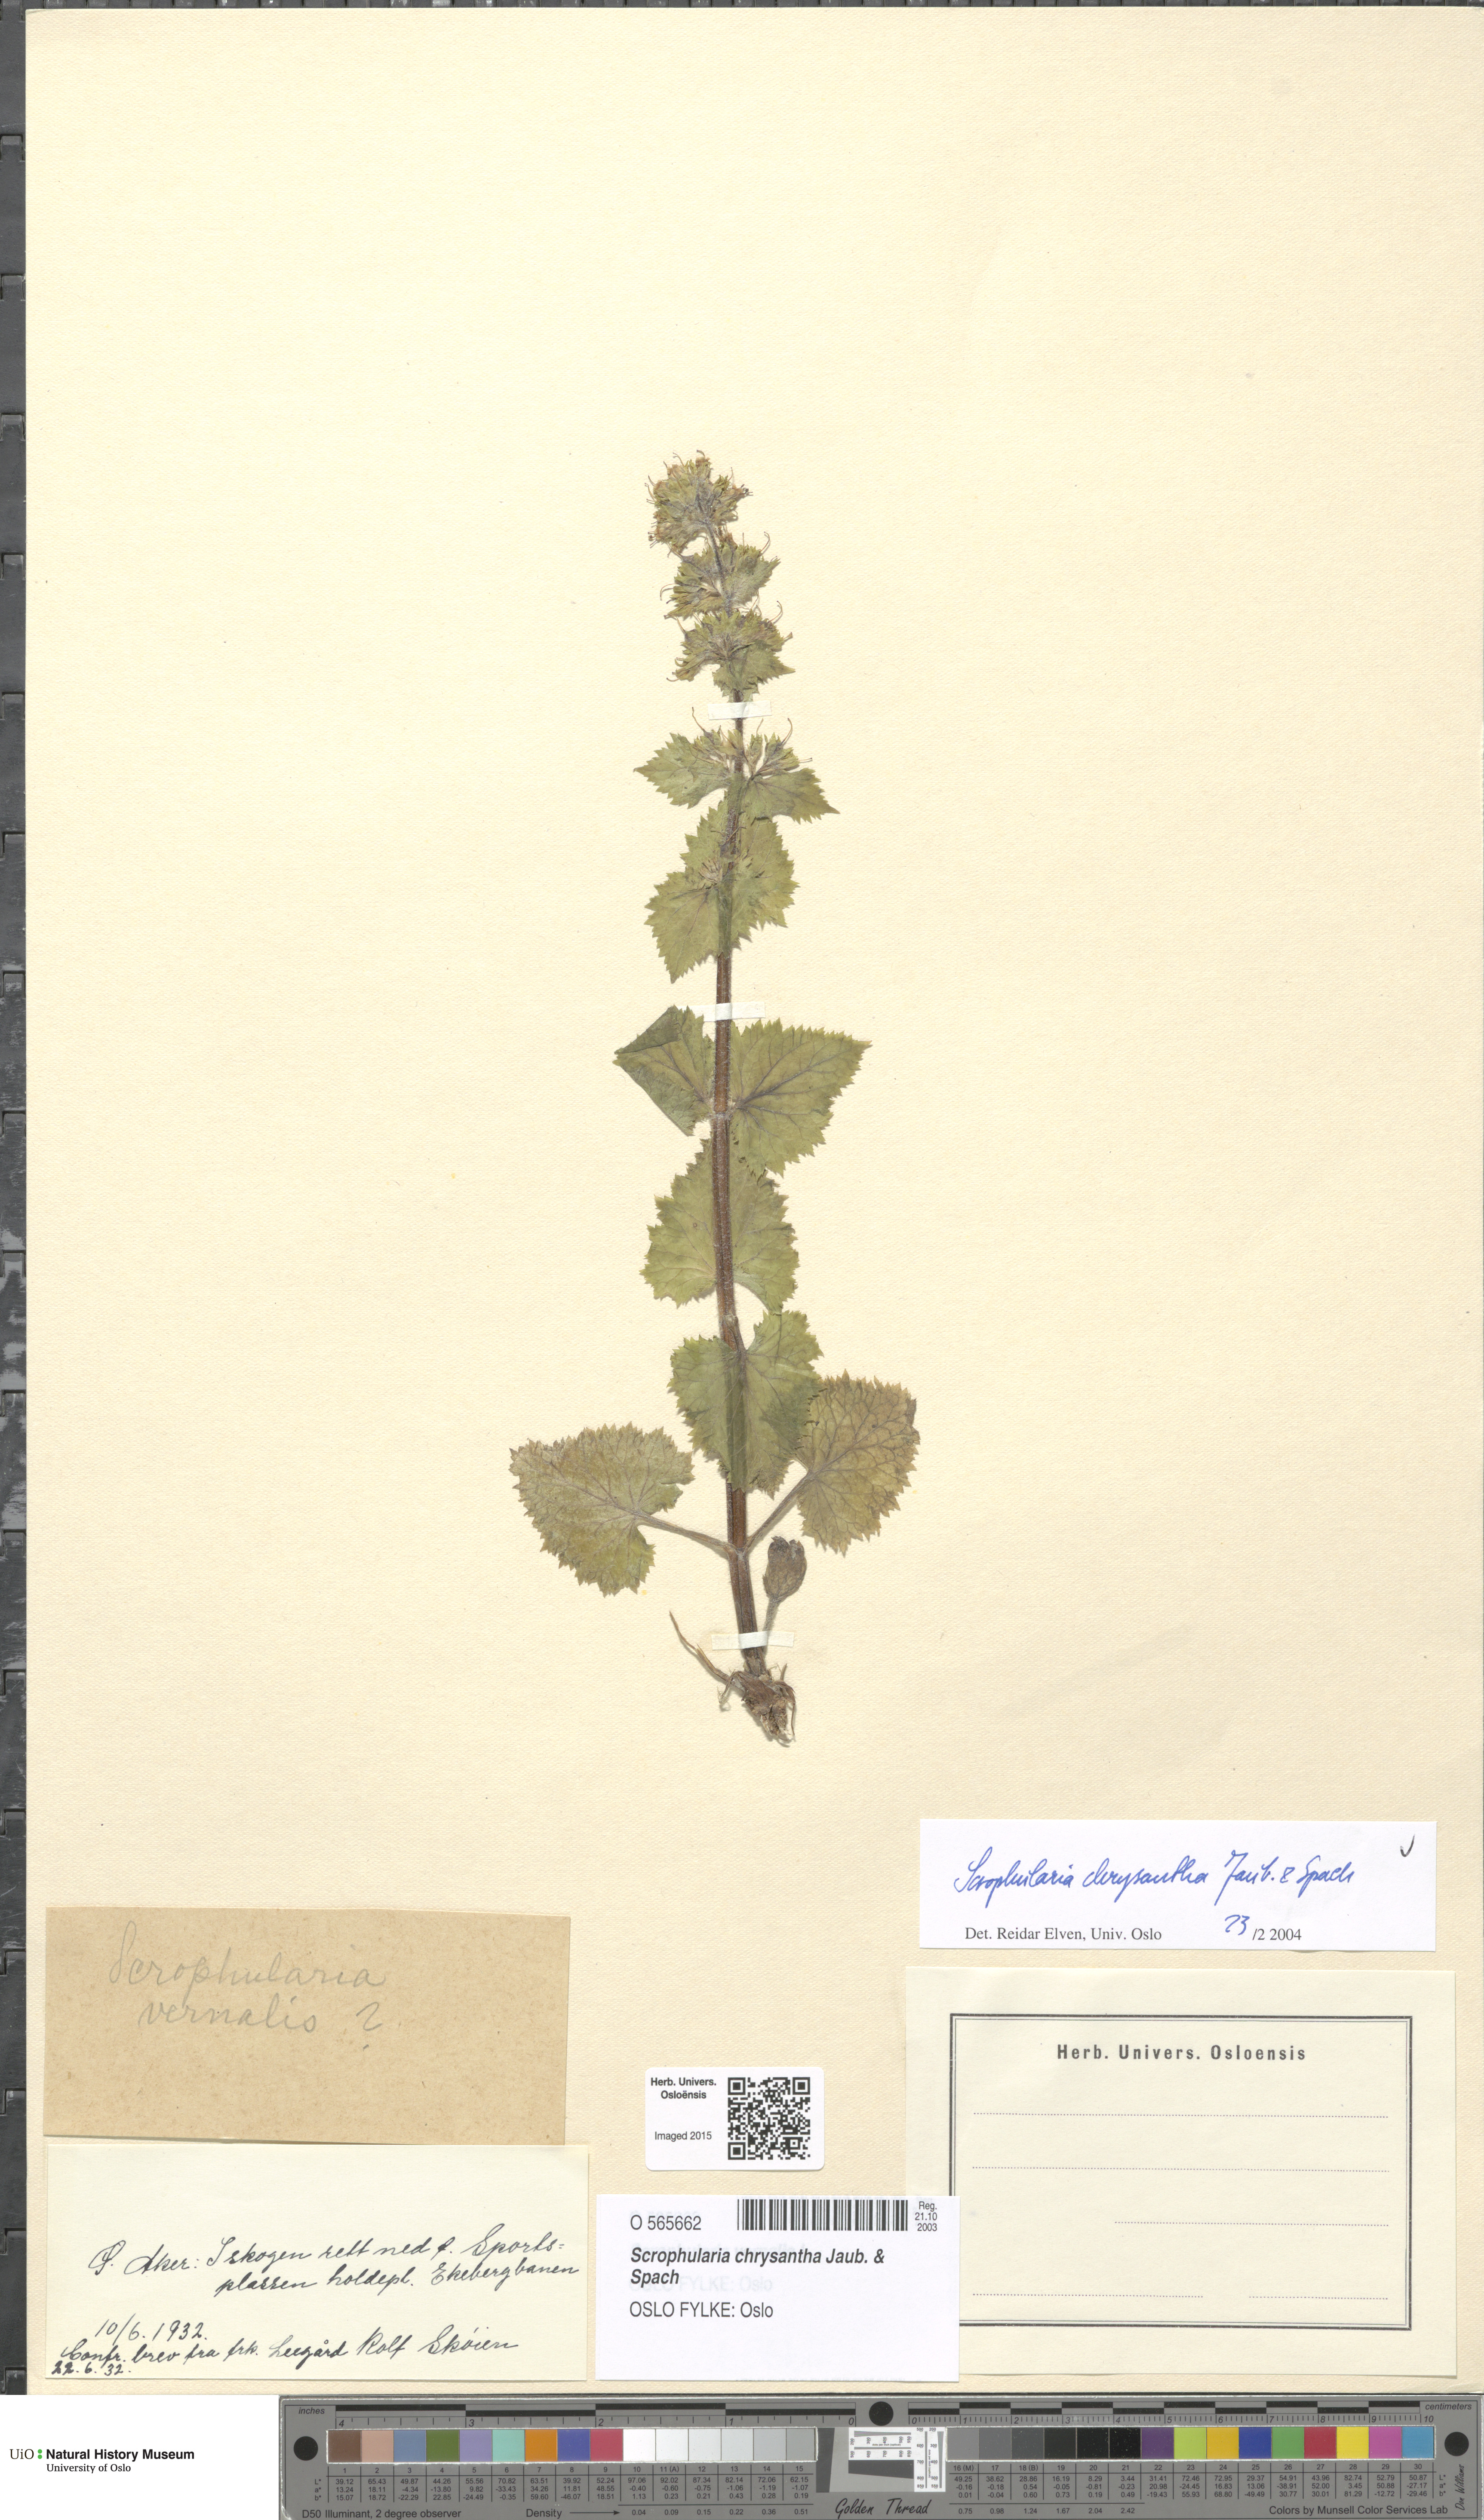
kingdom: Plantae
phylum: Tracheophyta
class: Magnoliopsida
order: Lamiales
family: Scrophulariaceae
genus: Scrophularia
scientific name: Scrophularia chrysantha
